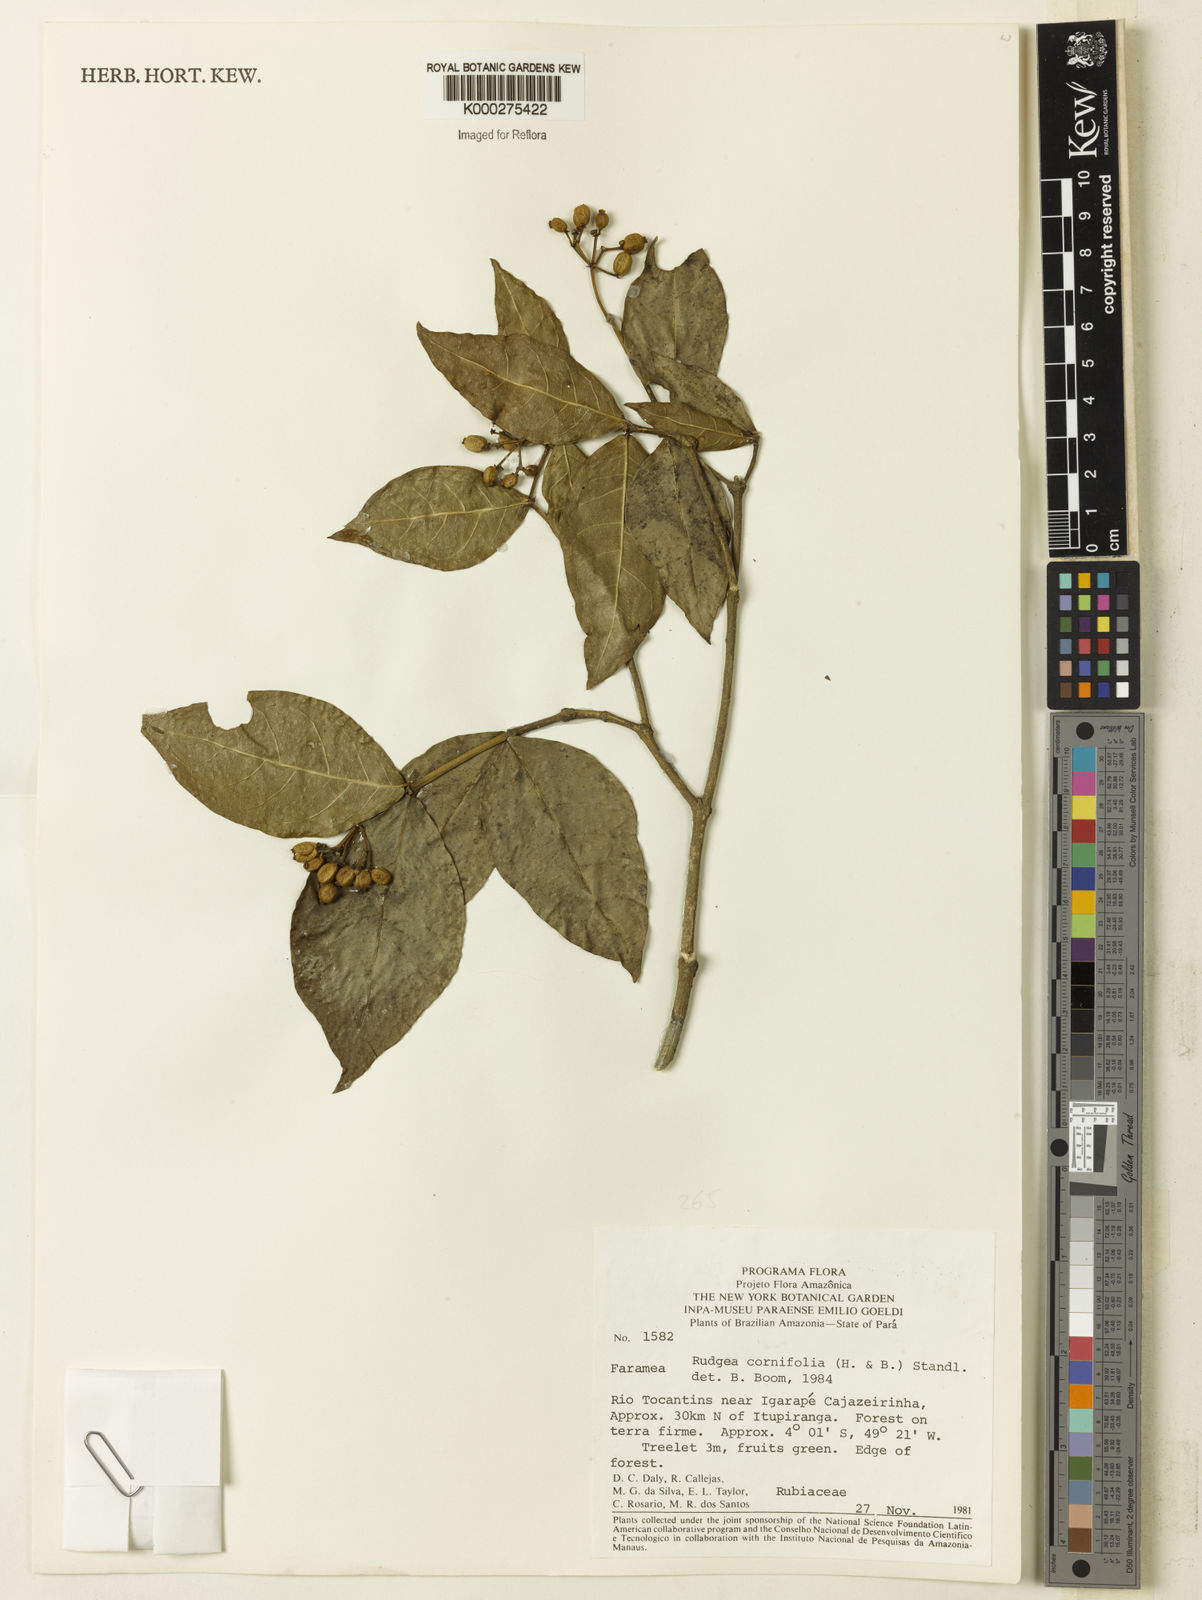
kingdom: Plantae
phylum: Tracheophyta
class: Magnoliopsida
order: Gentianales
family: Rubiaceae
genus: Rudgea
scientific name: Rudgea cornifolia
